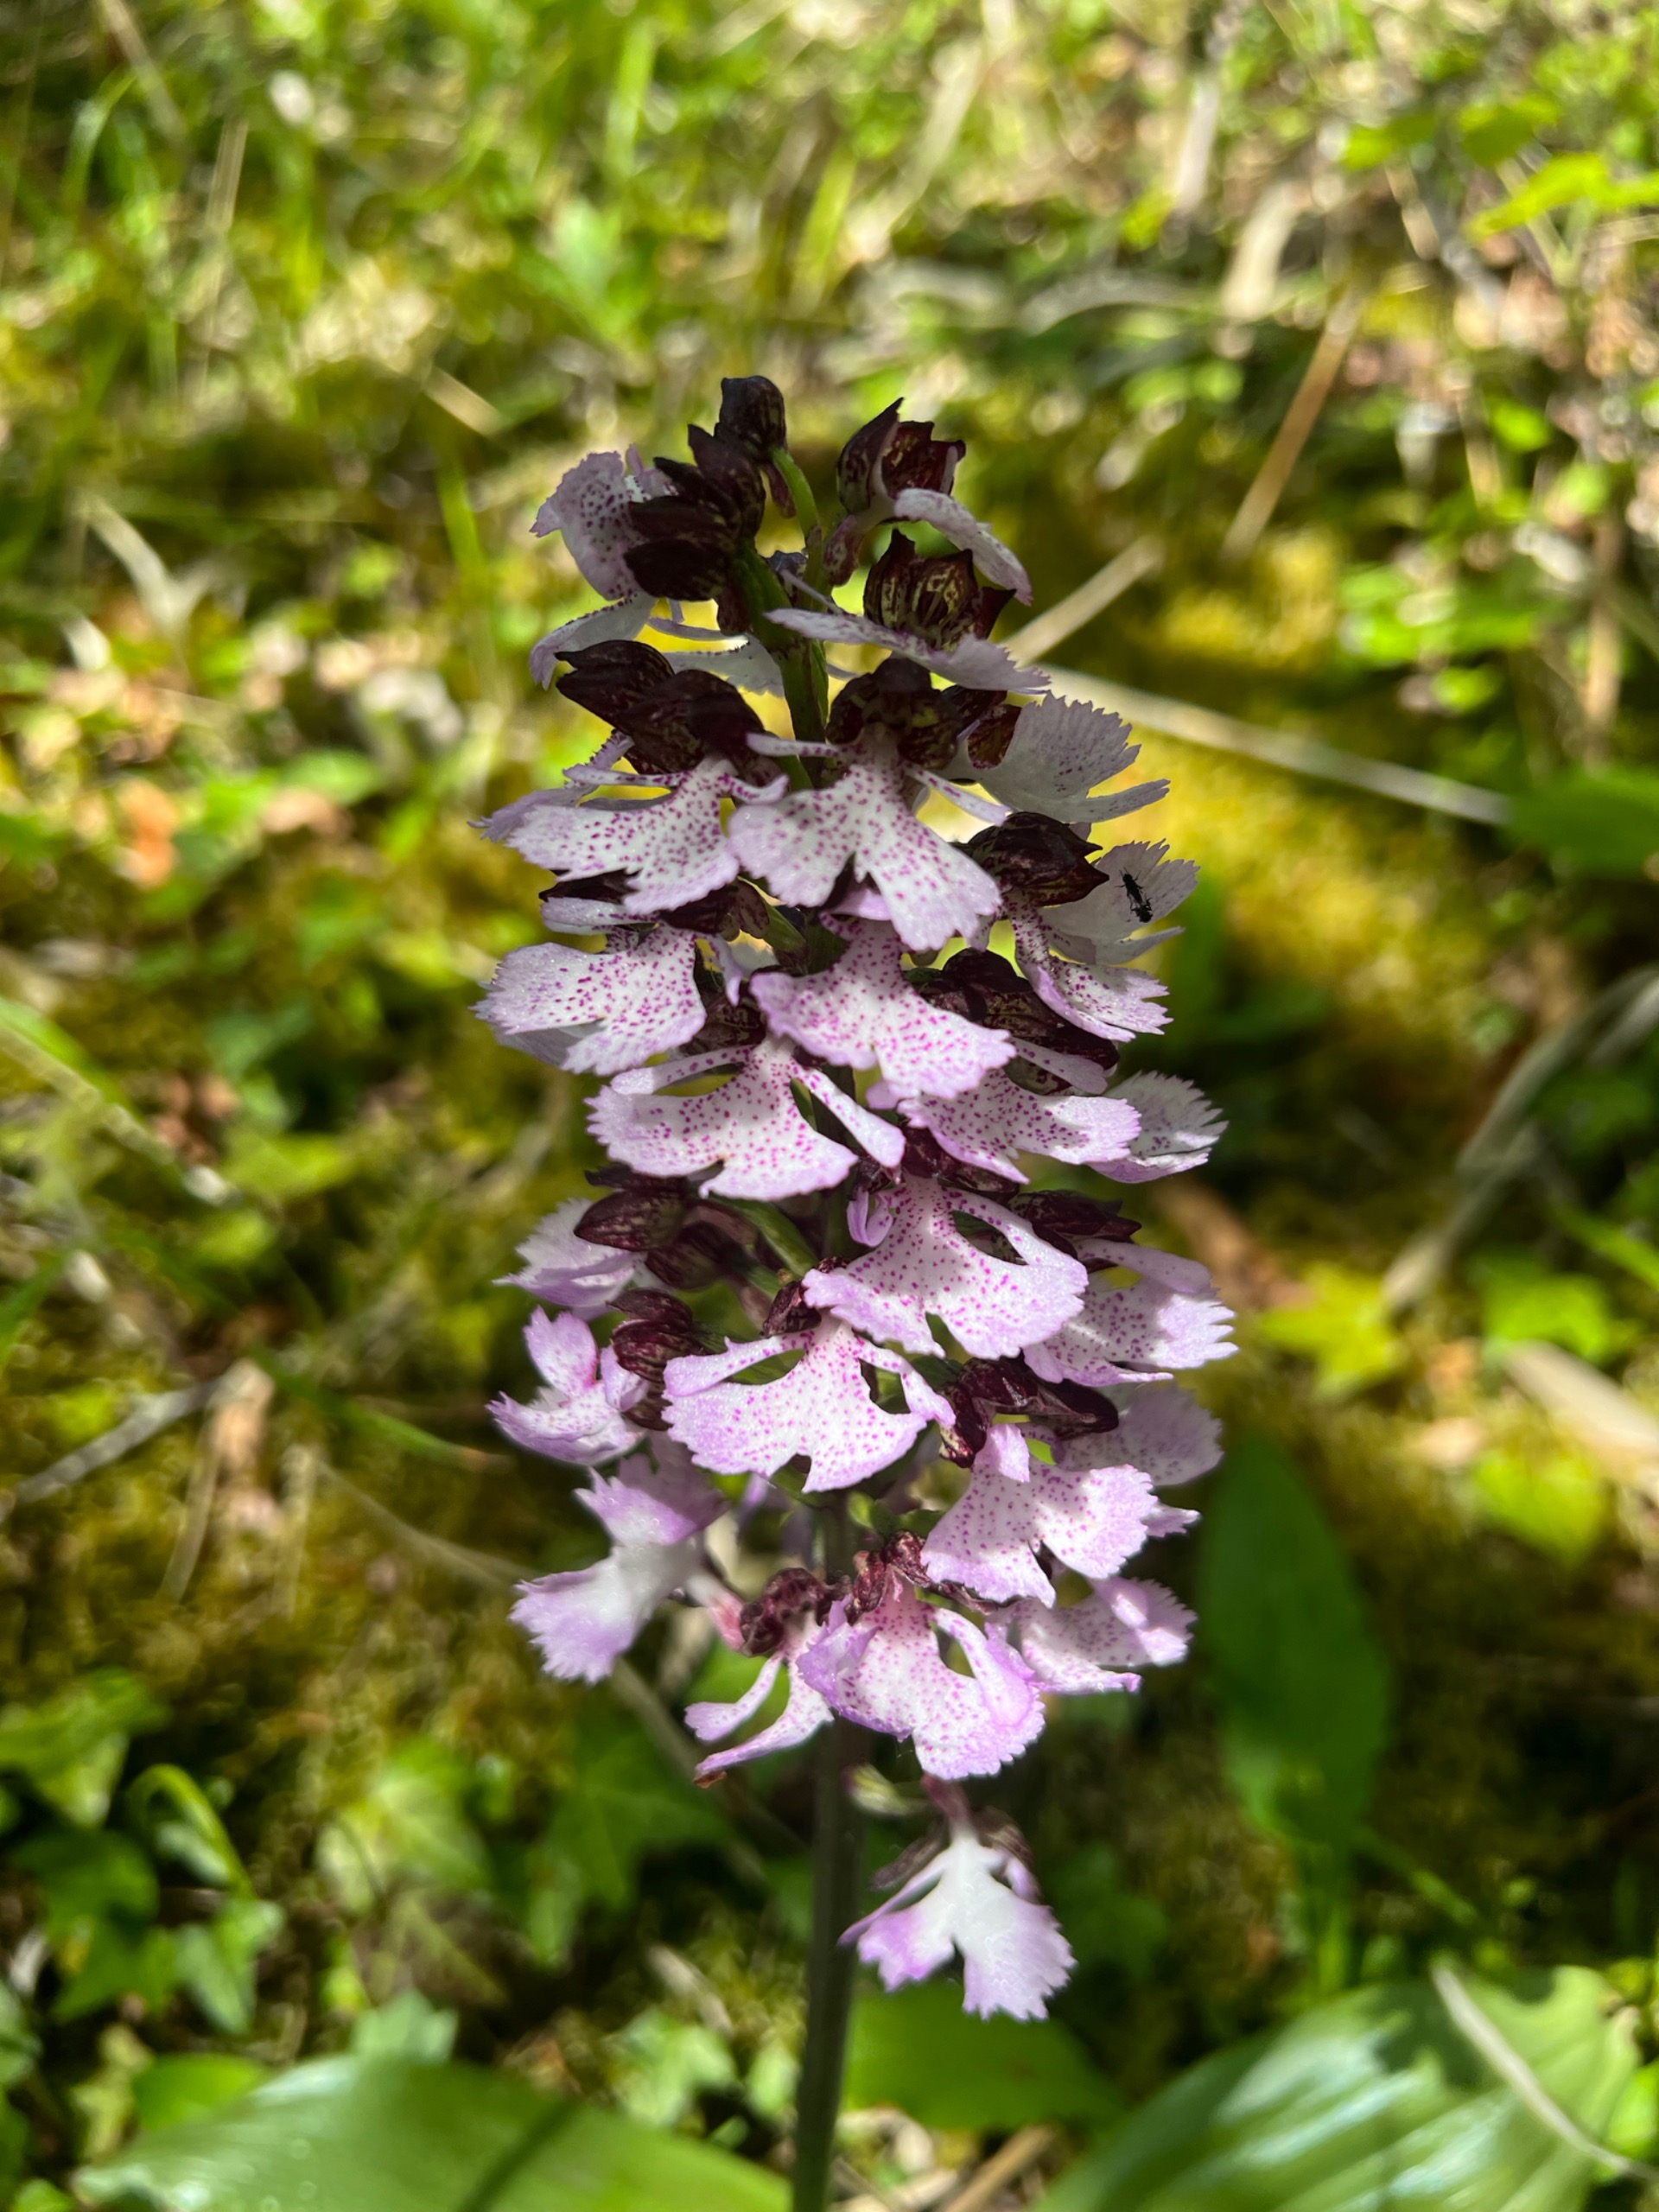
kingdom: Plantae
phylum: Tracheophyta
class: Liliopsida
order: Asparagales
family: Orchidaceae
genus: Orchis
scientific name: Orchis purpurea
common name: Stor gøgeurt
